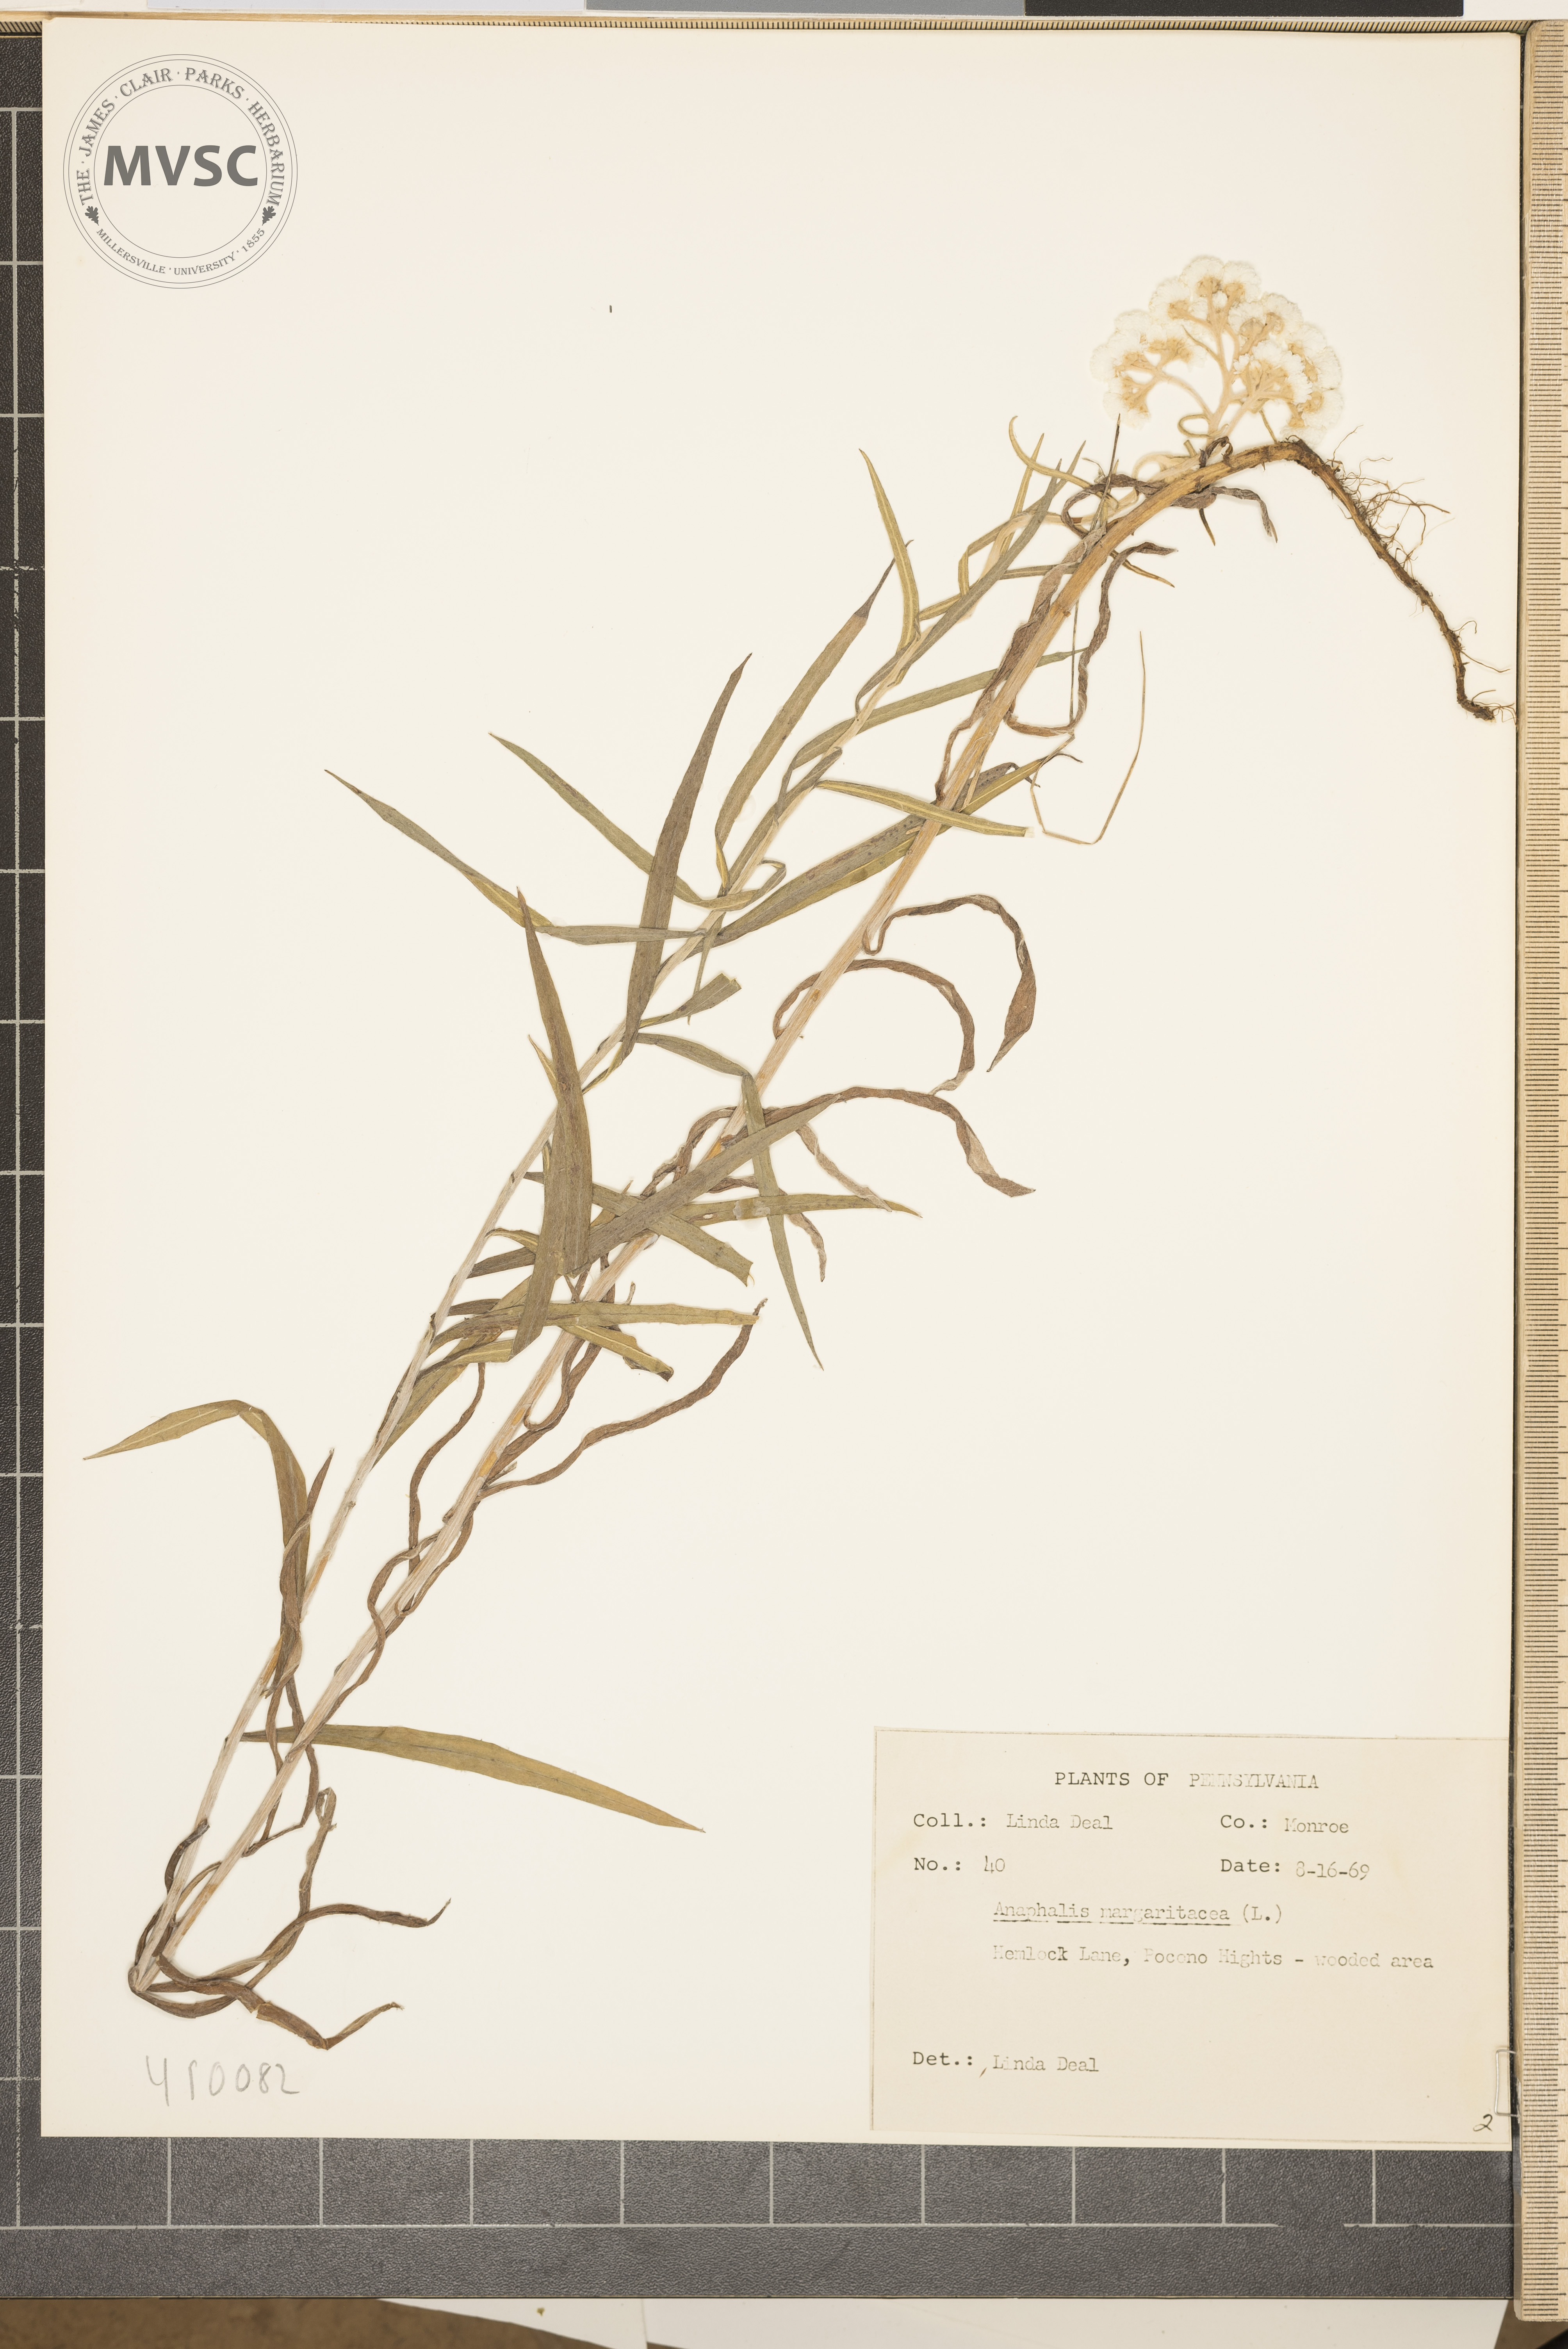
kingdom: Plantae
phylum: Tracheophyta
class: Magnoliopsida
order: Asterales
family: Asteraceae
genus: Anaphalis
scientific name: Anaphalis margaritacea
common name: Pearly everlasting
